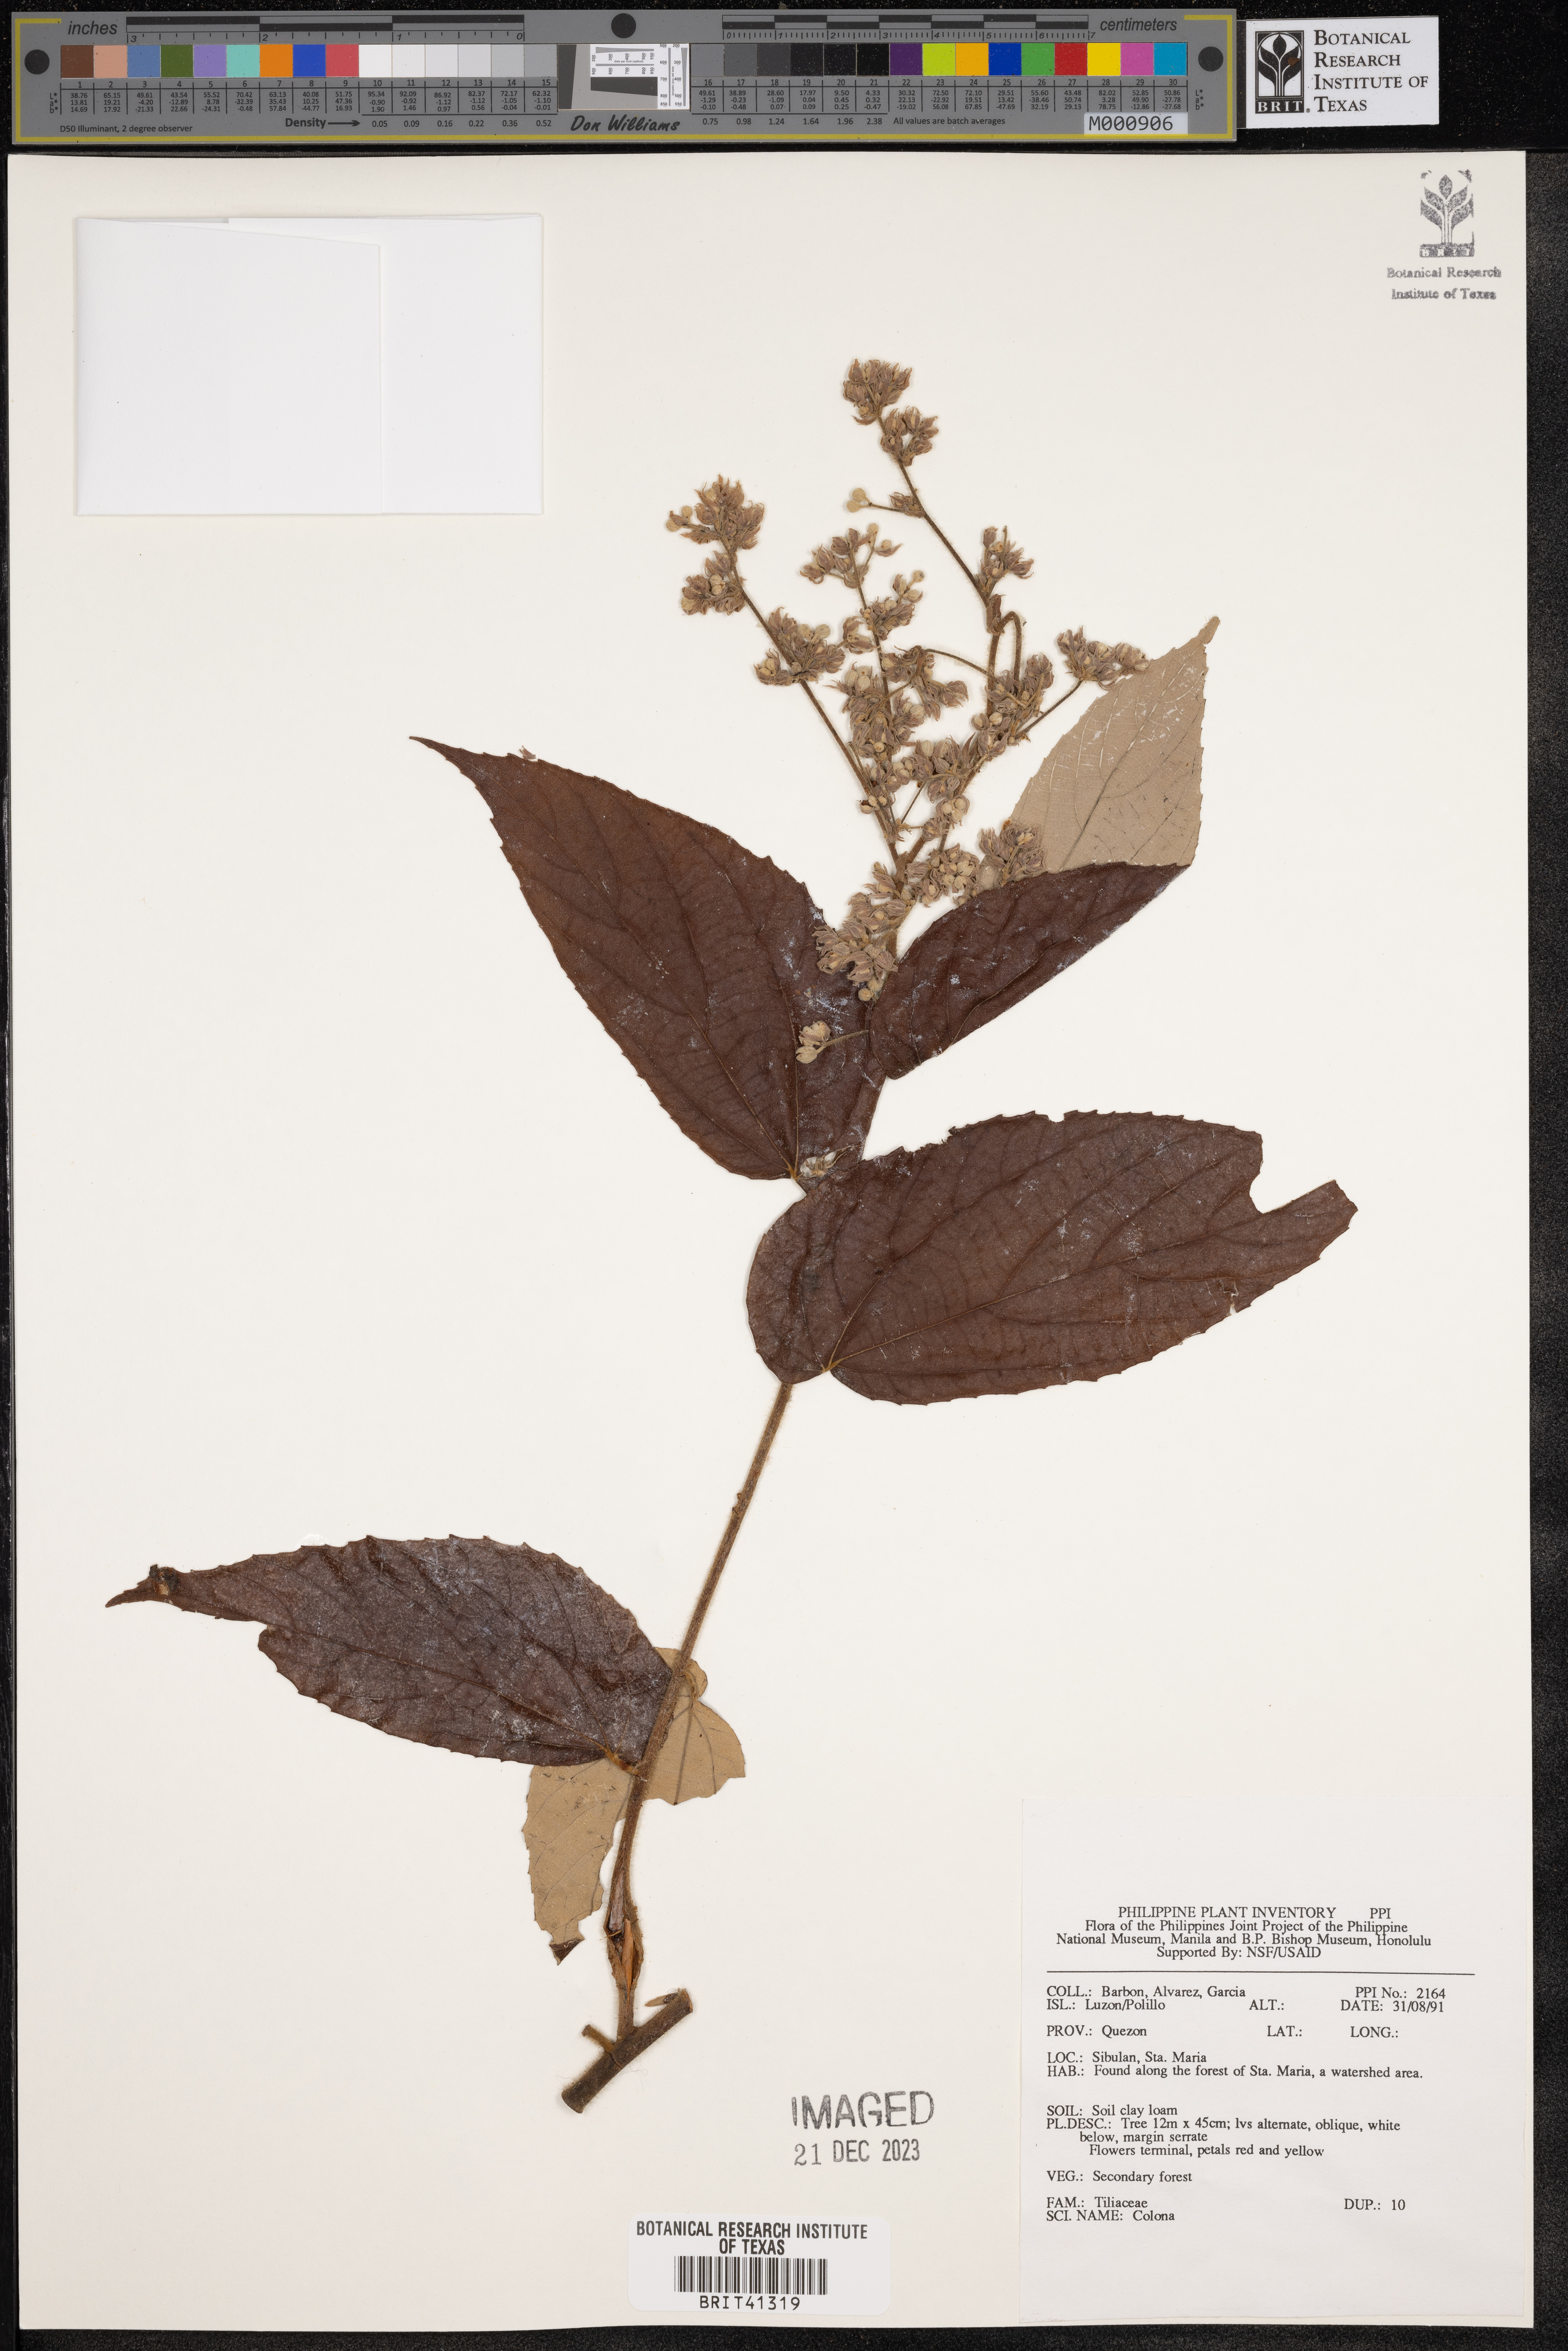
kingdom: Plantae
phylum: Tracheophyta
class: Magnoliopsida
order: Malvales
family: Malvaceae
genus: Colona
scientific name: Colona
